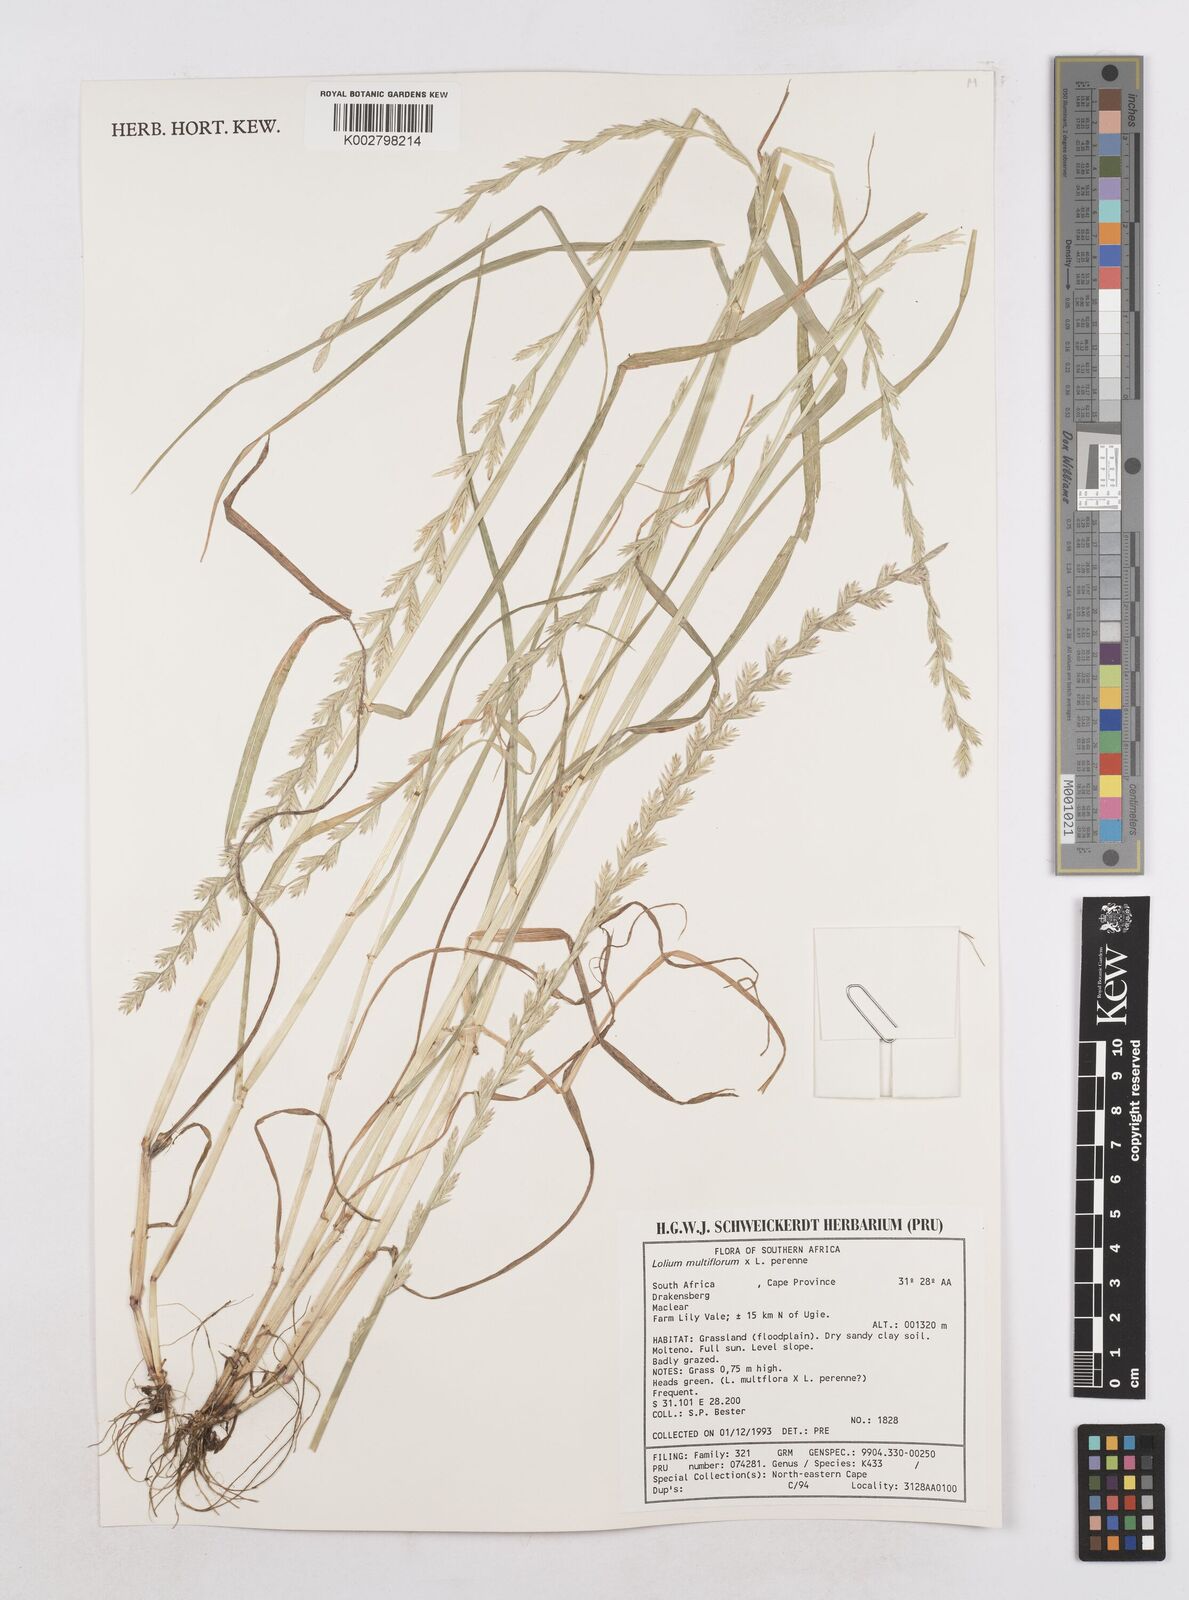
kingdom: Plantae
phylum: Tracheophyta
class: Liliopsida
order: Poales
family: Poaceae
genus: Lolium
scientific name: Lolium multiflorum
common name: Annual ryegrass
